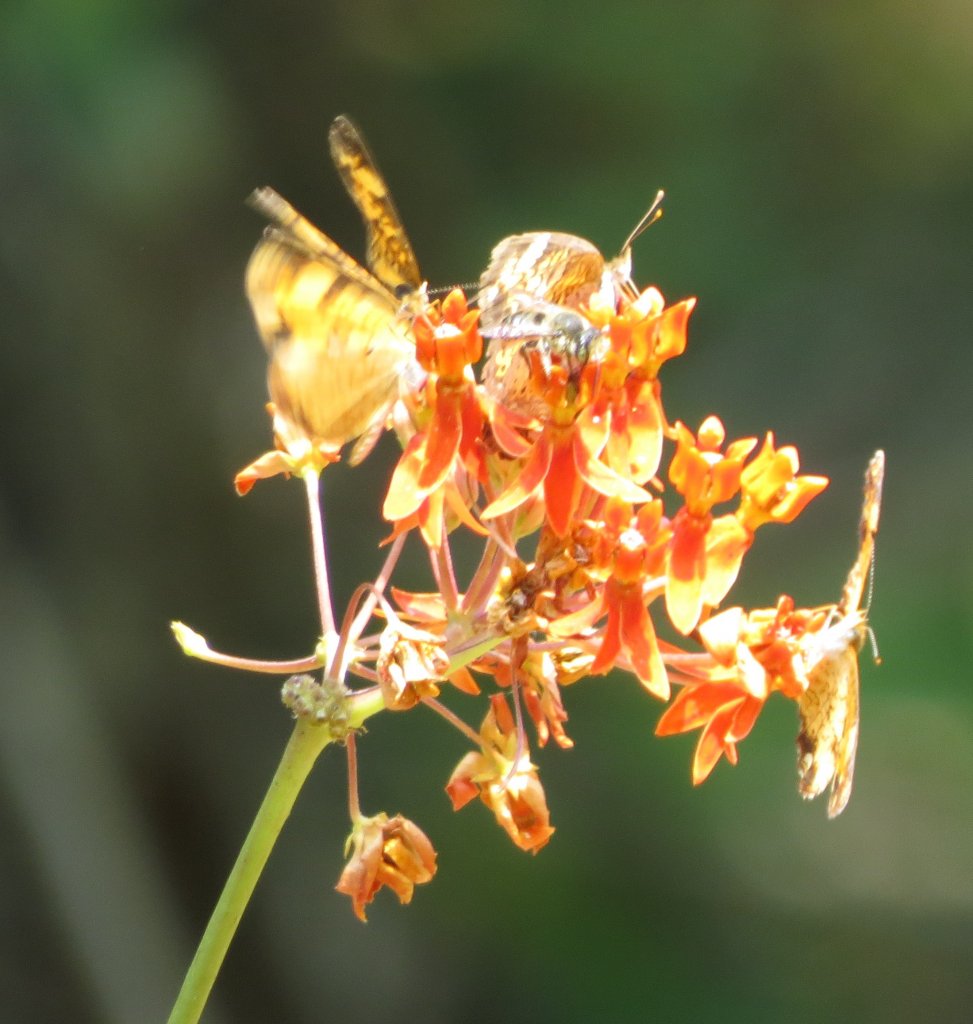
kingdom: Animalia
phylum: Arthropoda
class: Insecta
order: Lepidoptera
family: Nymphalidae
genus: Phyciodes
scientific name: Phyciodes tharos
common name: Pearl Crescent
